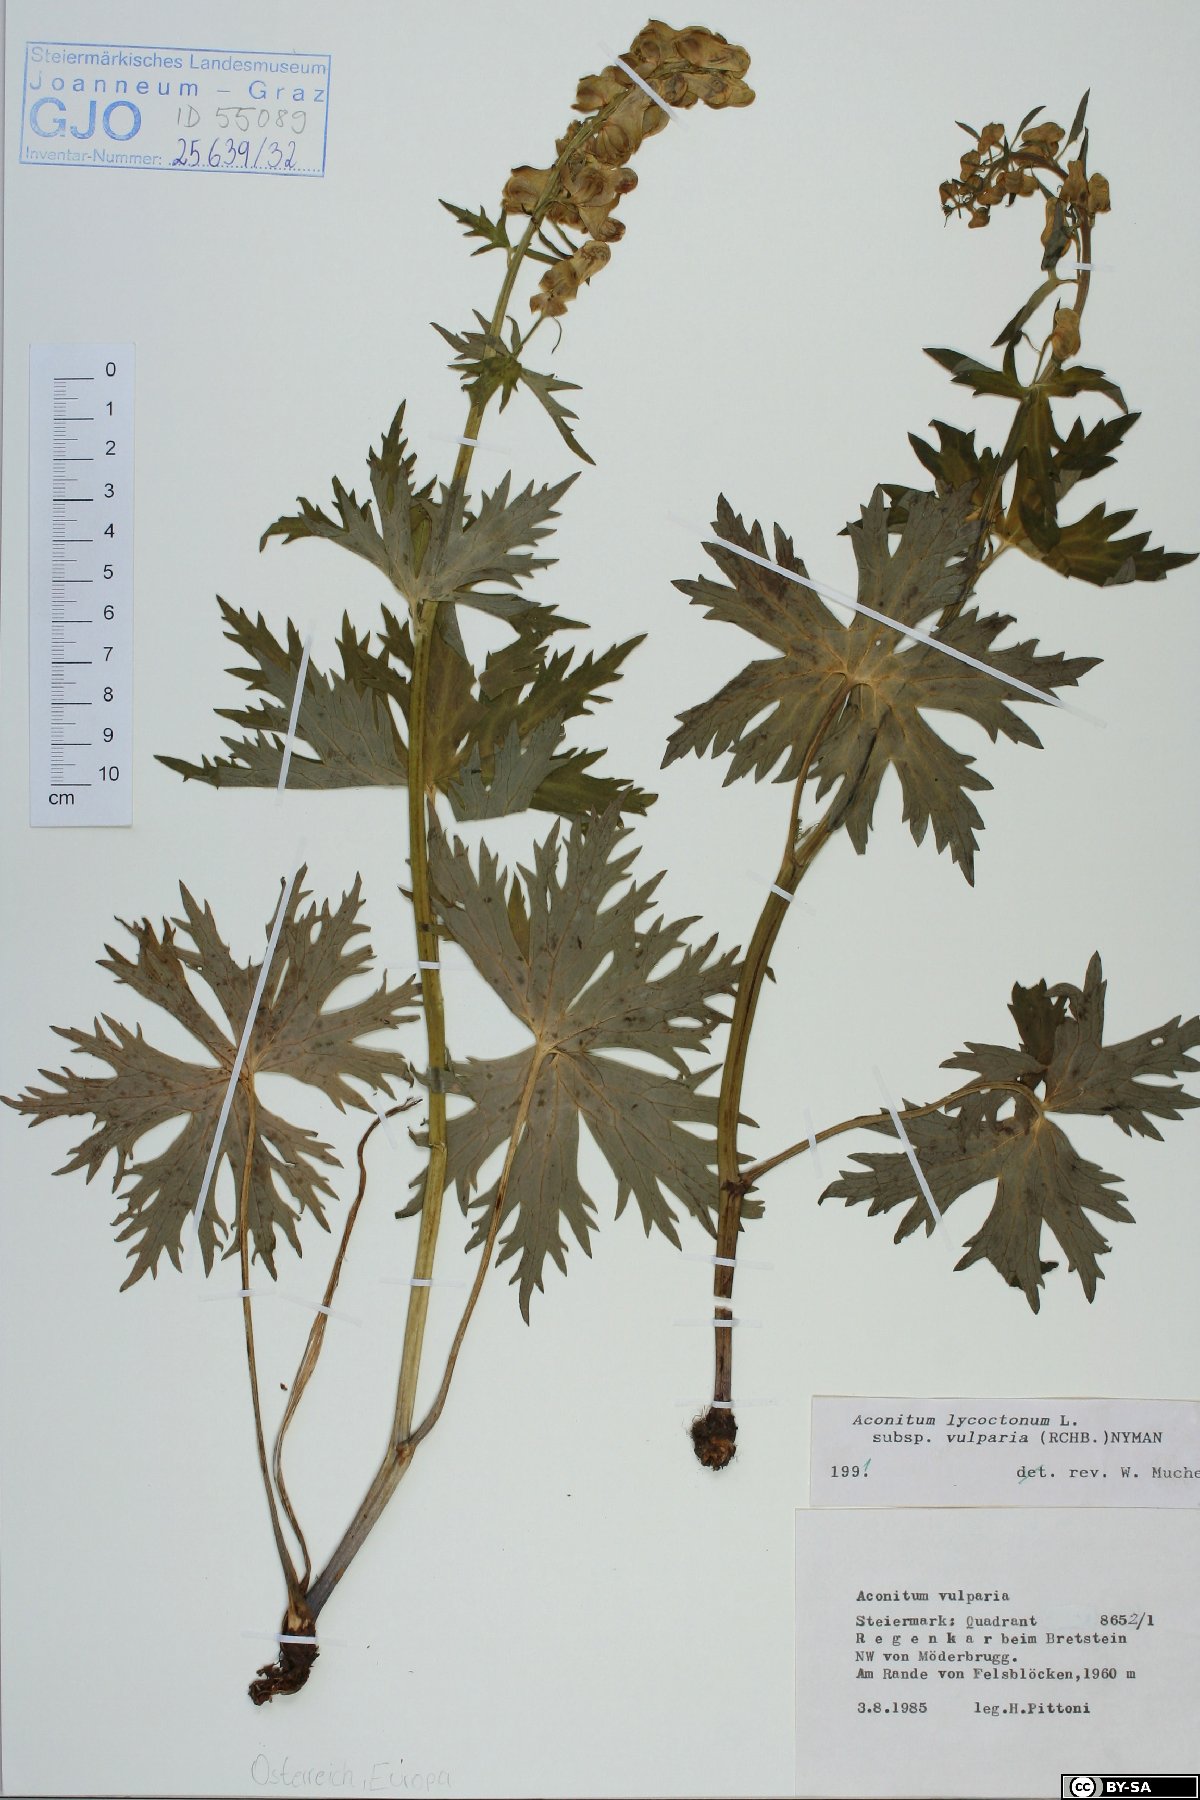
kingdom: Plantae
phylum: Tracheophyta
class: Magnoliopsida
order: Ranunculales
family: Ranunculaceae
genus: Aconitum
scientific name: Aconitum lycoctonum
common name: Wolf's-bane
